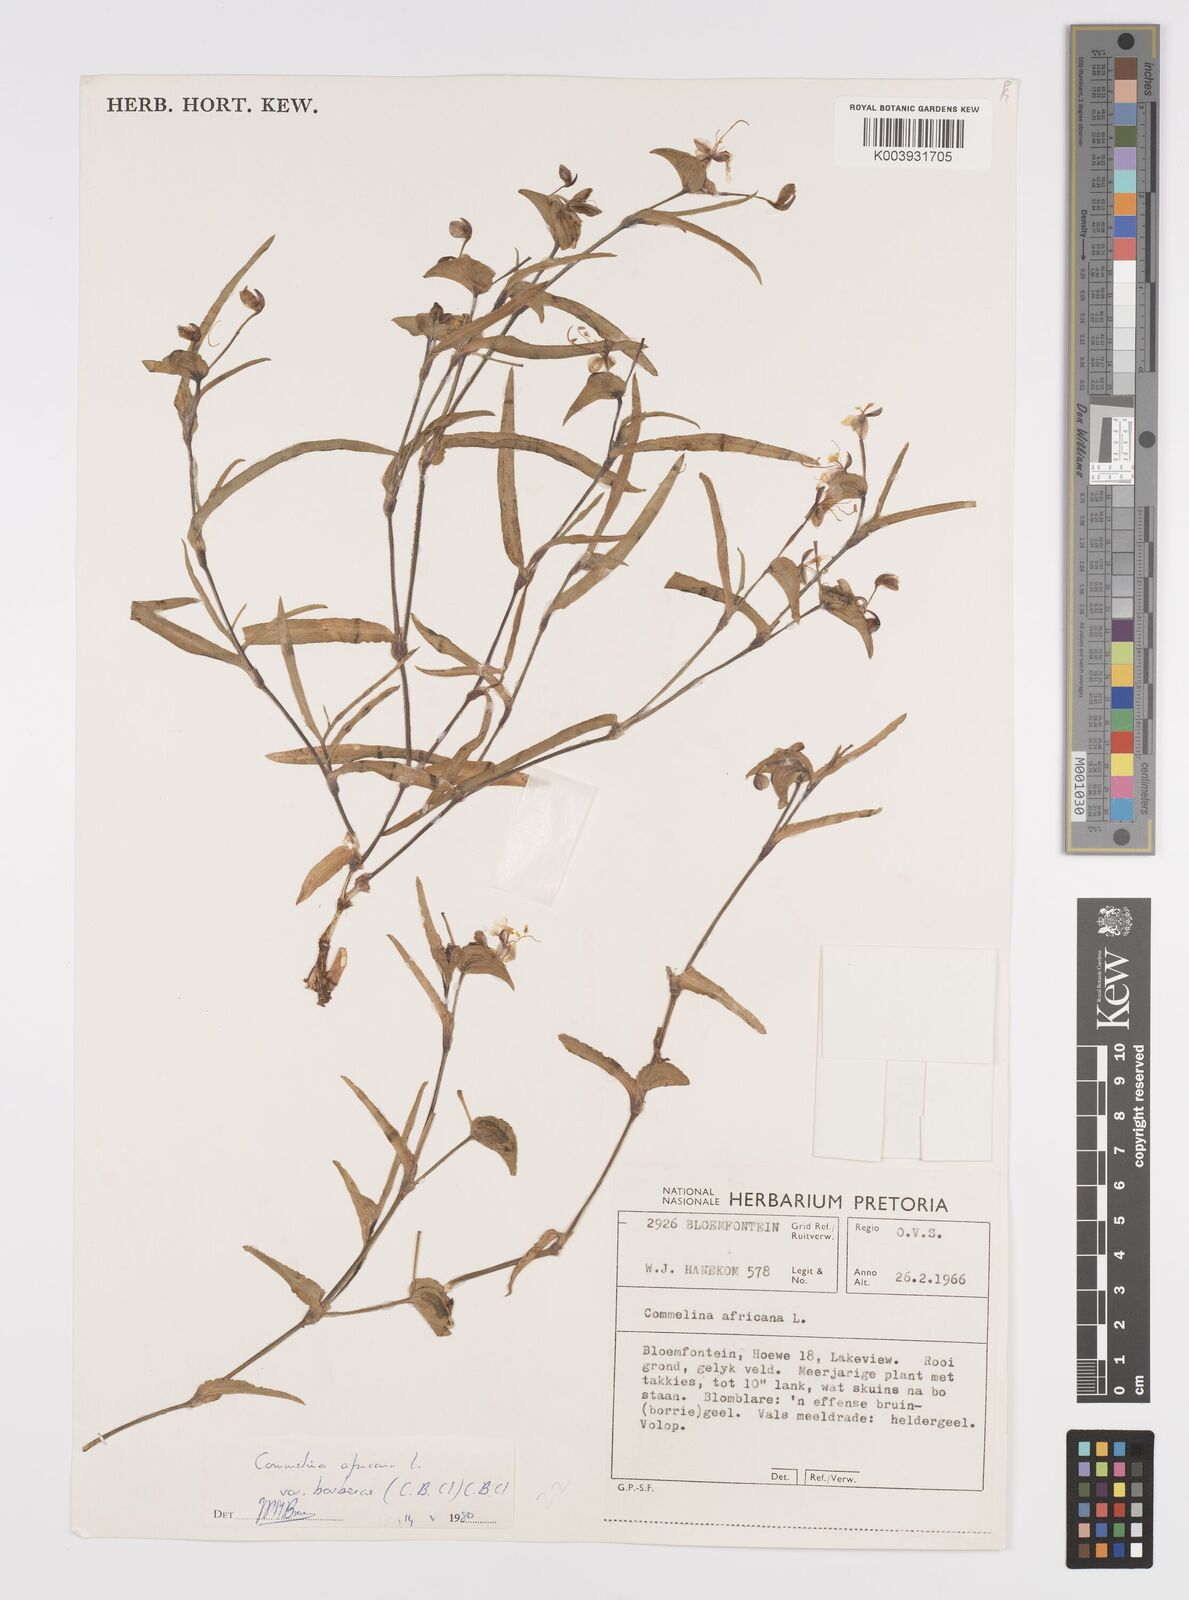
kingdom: Plantae
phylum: Tracheophyta
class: Liliopsida
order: Commelinales
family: Commelinaceae
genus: Commelina
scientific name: Commelina africana
